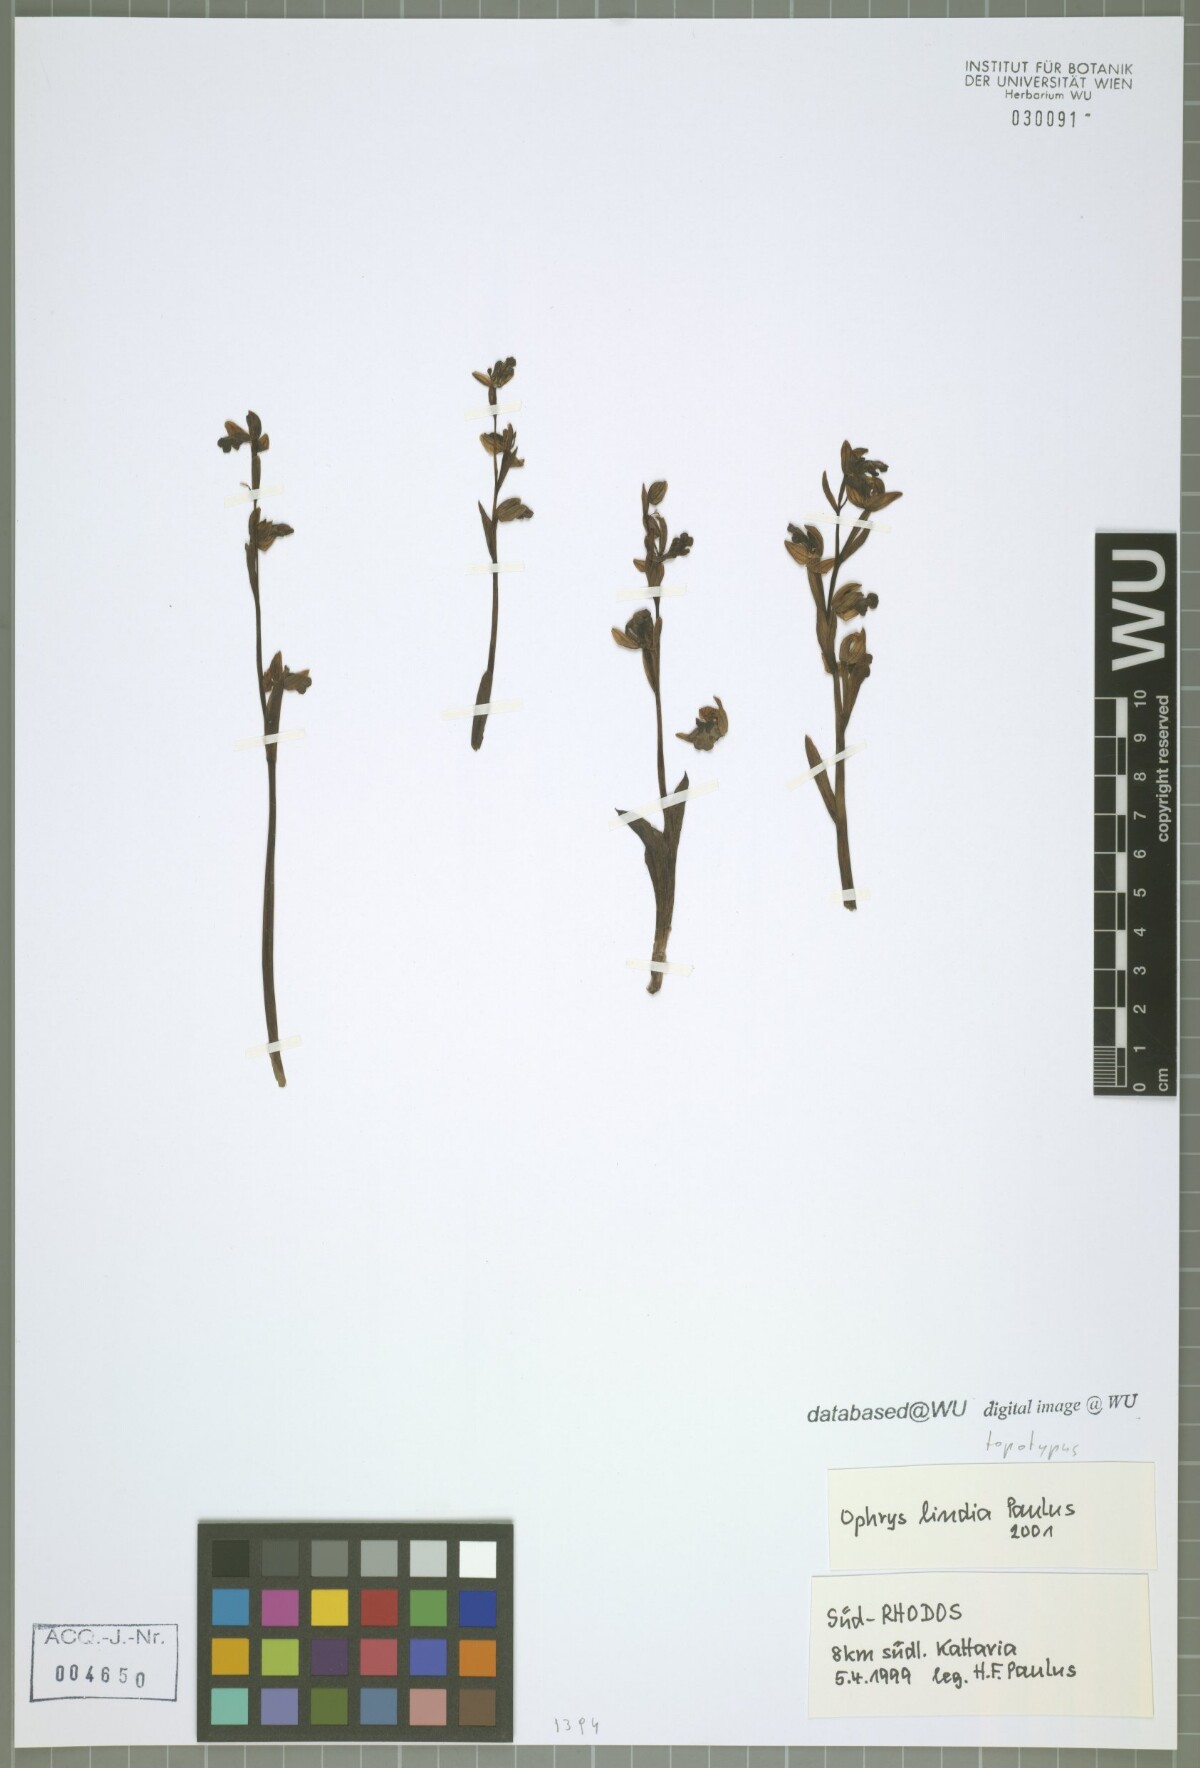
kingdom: Plantae
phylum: Tracheophyta
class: Liliopsida
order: Asparagales
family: Orchidaceae
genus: Ophrys
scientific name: Ophrys fusca
